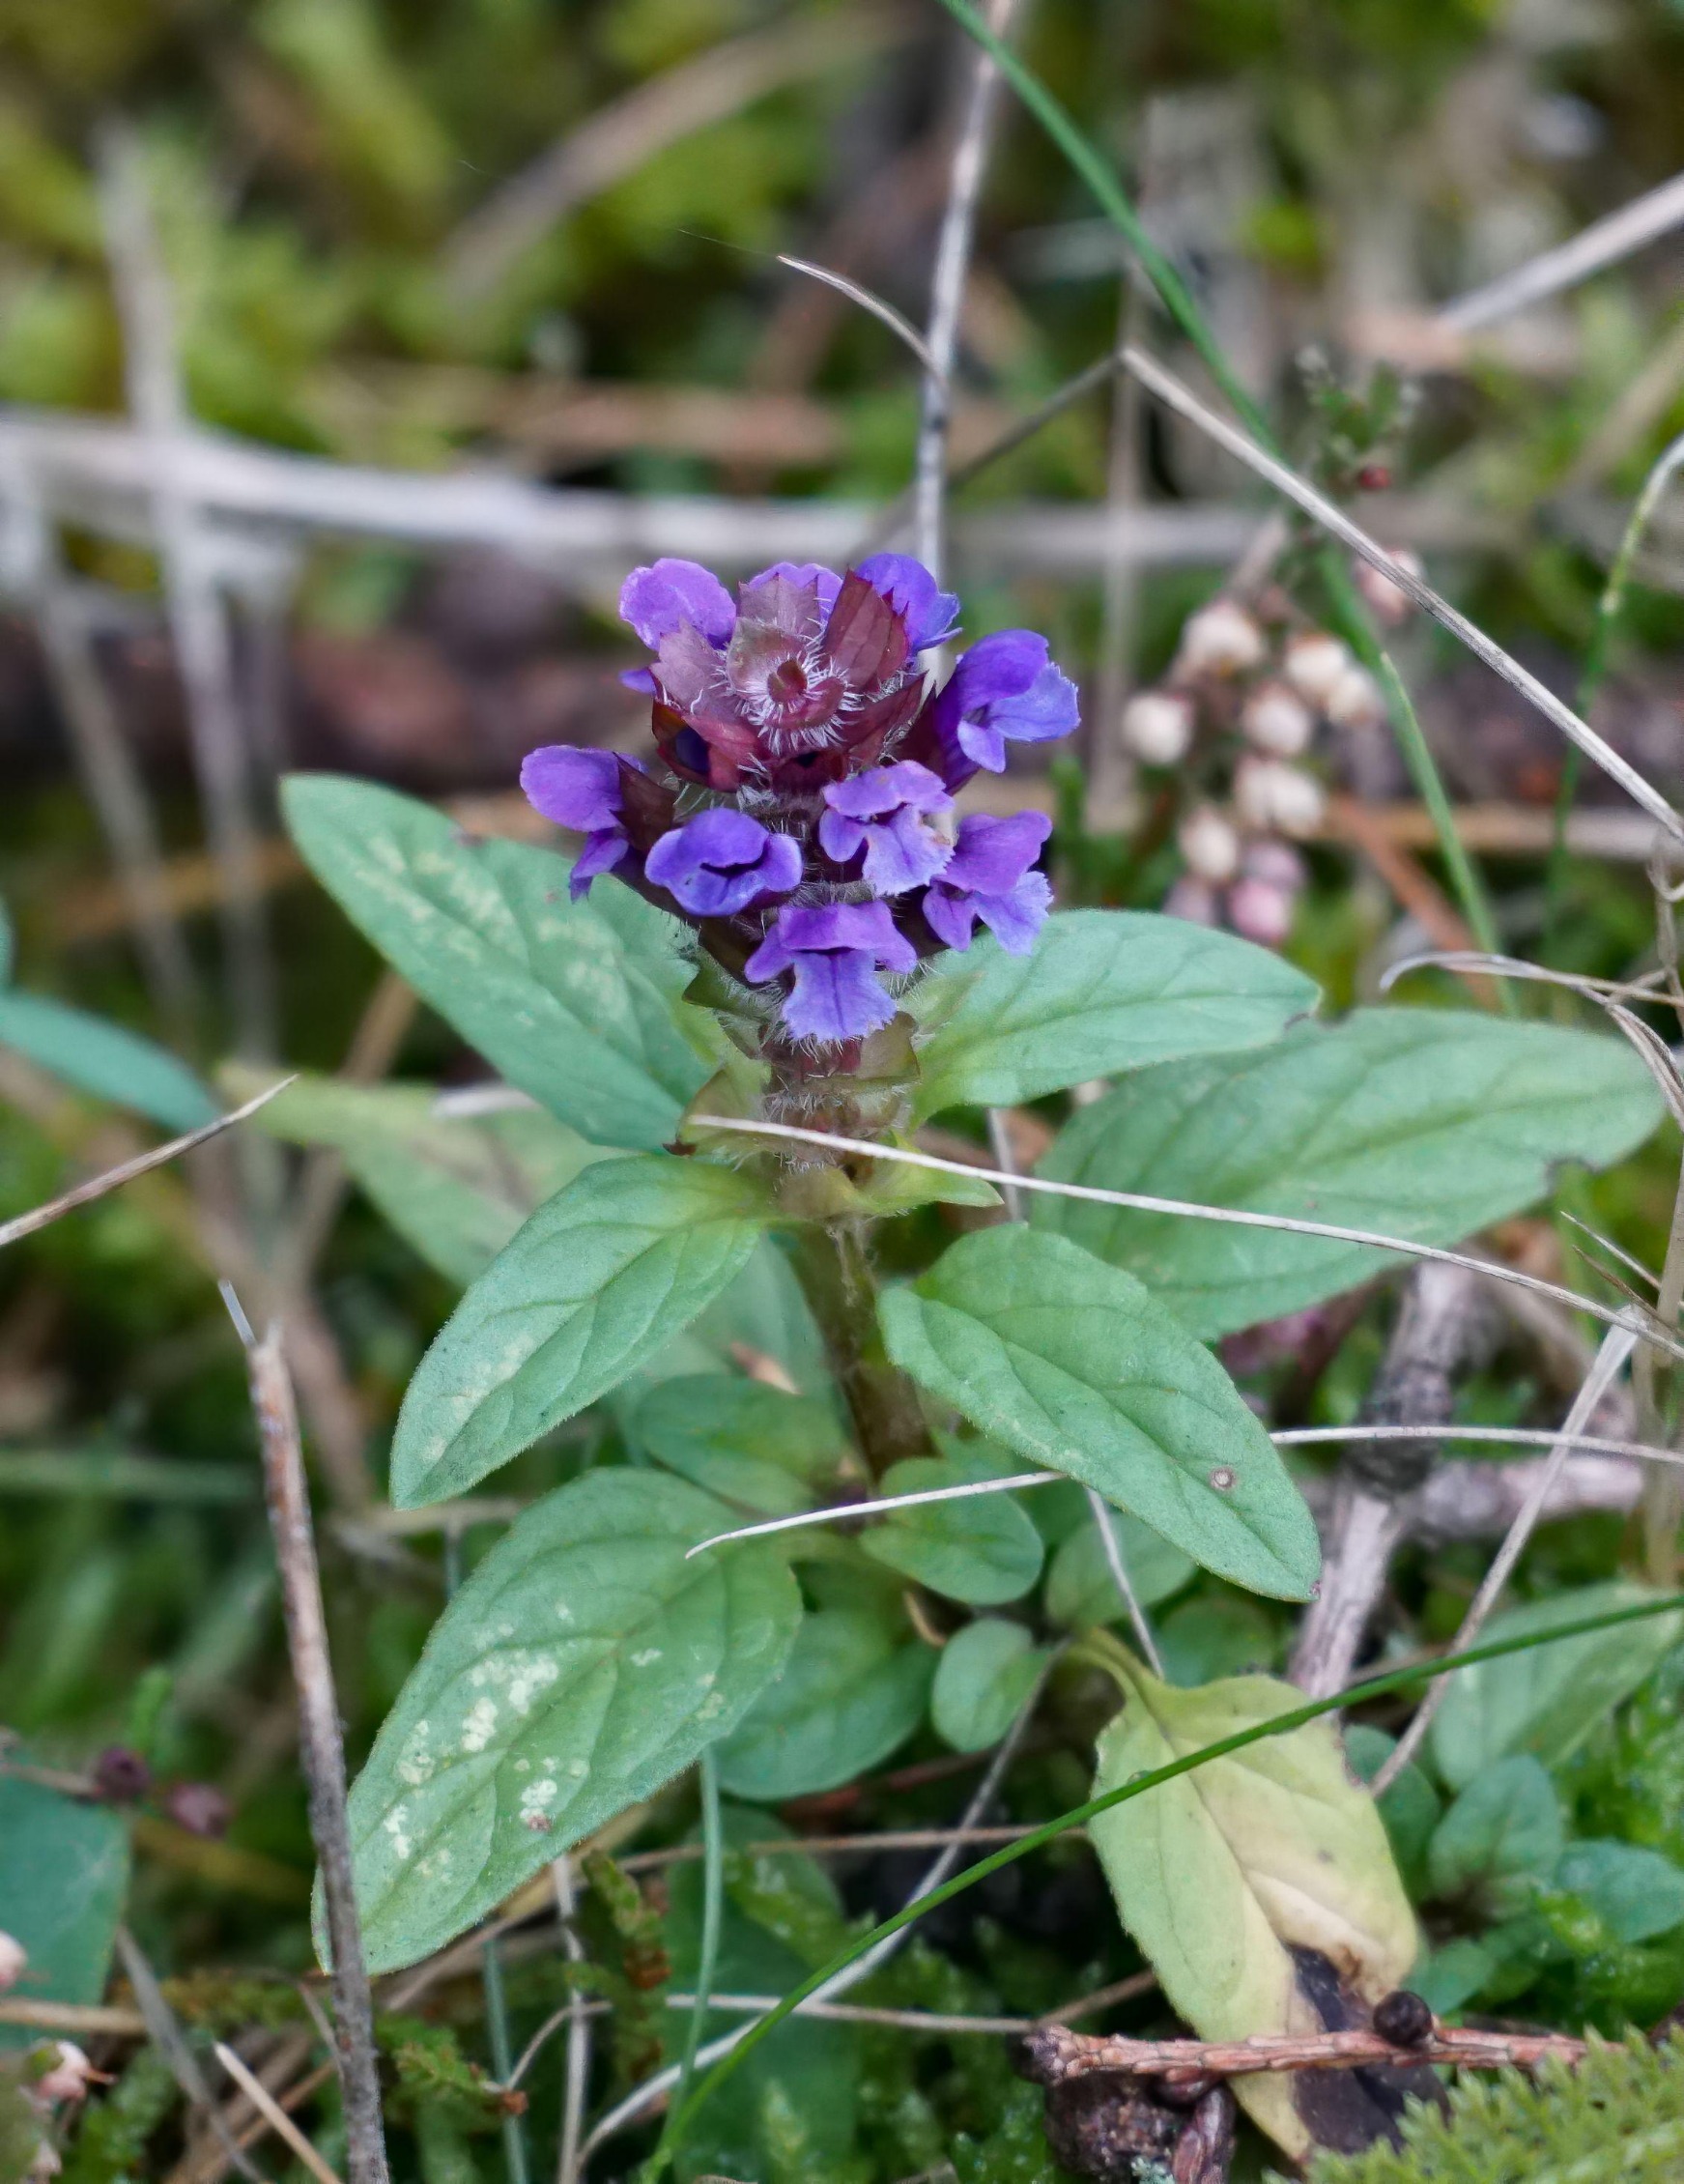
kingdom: Plantae
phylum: Tracheophyta
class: Magnoliopsida
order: Lamiales
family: Lamiaceae
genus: Prunella
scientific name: Prunella vulgaris
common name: Almindelig brunelle
